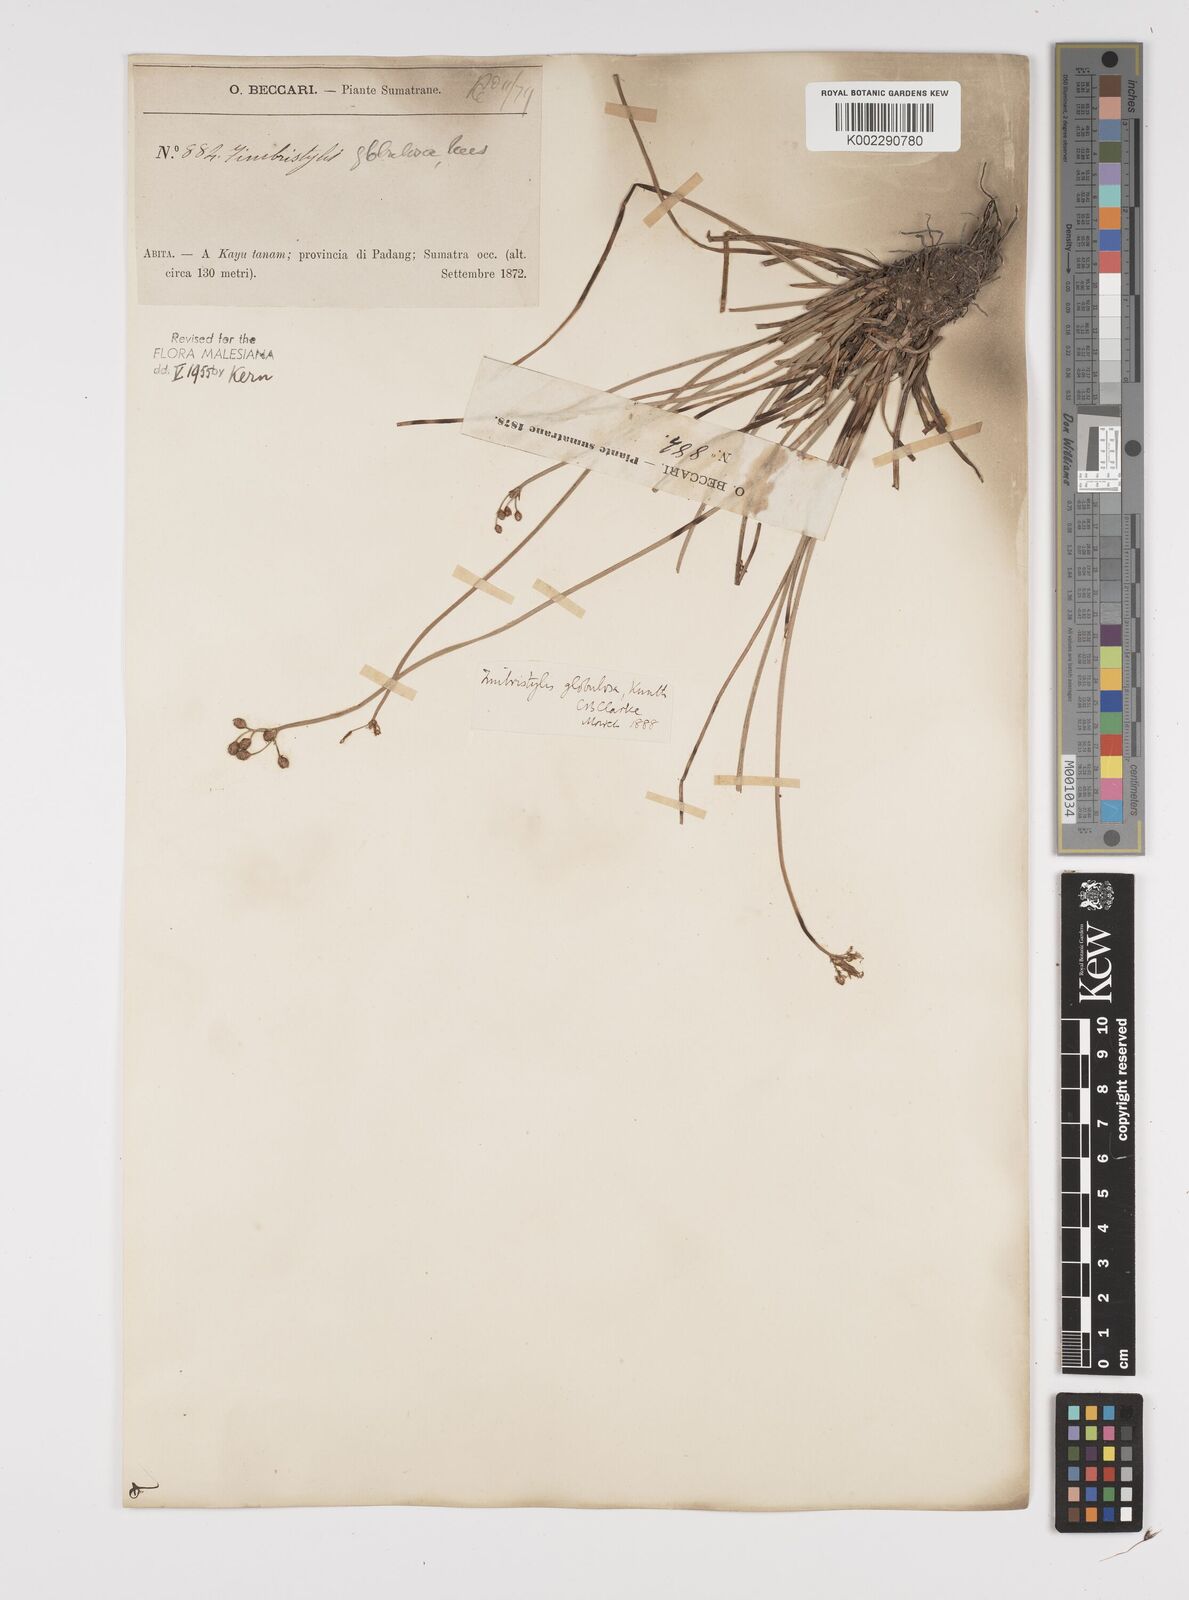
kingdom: Plantae
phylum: Tracheophyta
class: Liliopsida
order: Poales
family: Cyperaceae
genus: Fimbristylis
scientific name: Fimbristylis umbellaris
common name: Globular fimbristylis
